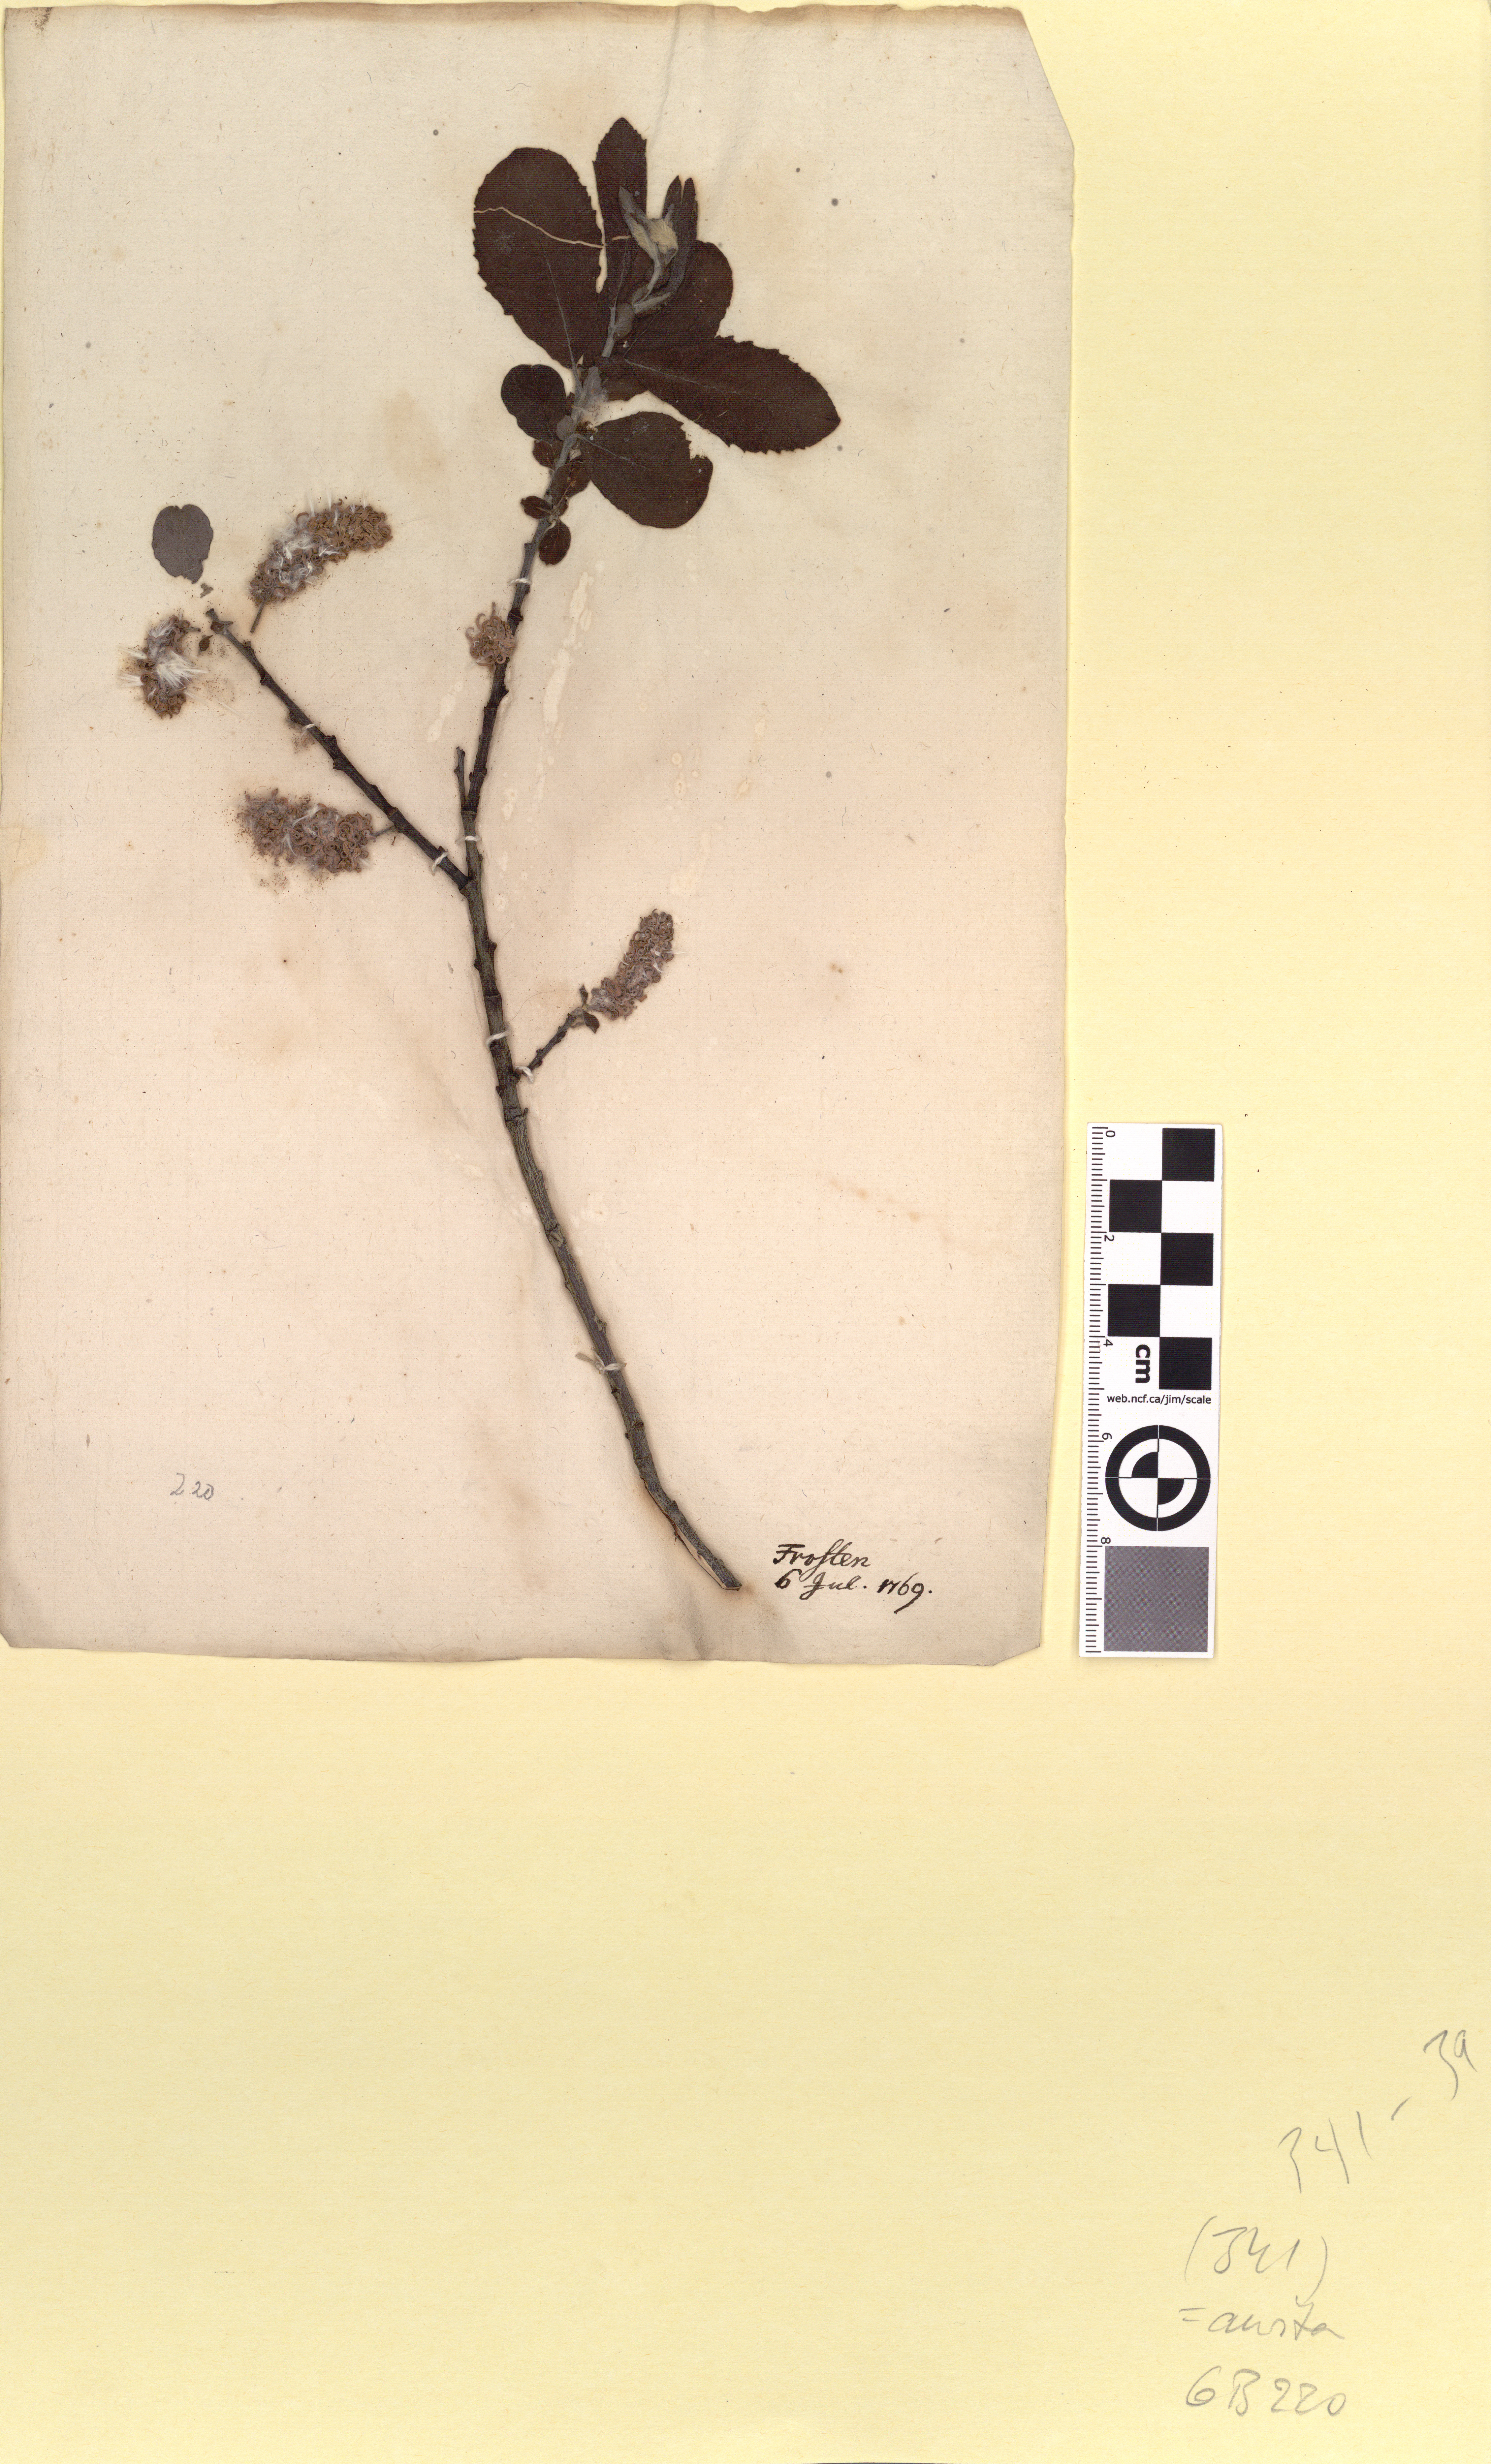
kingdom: Plantae
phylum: Tracheophyta
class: Magnoliopsida
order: Malpighiales
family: Salicaceae
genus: Salix
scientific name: Salix aurita
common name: Eared willow
